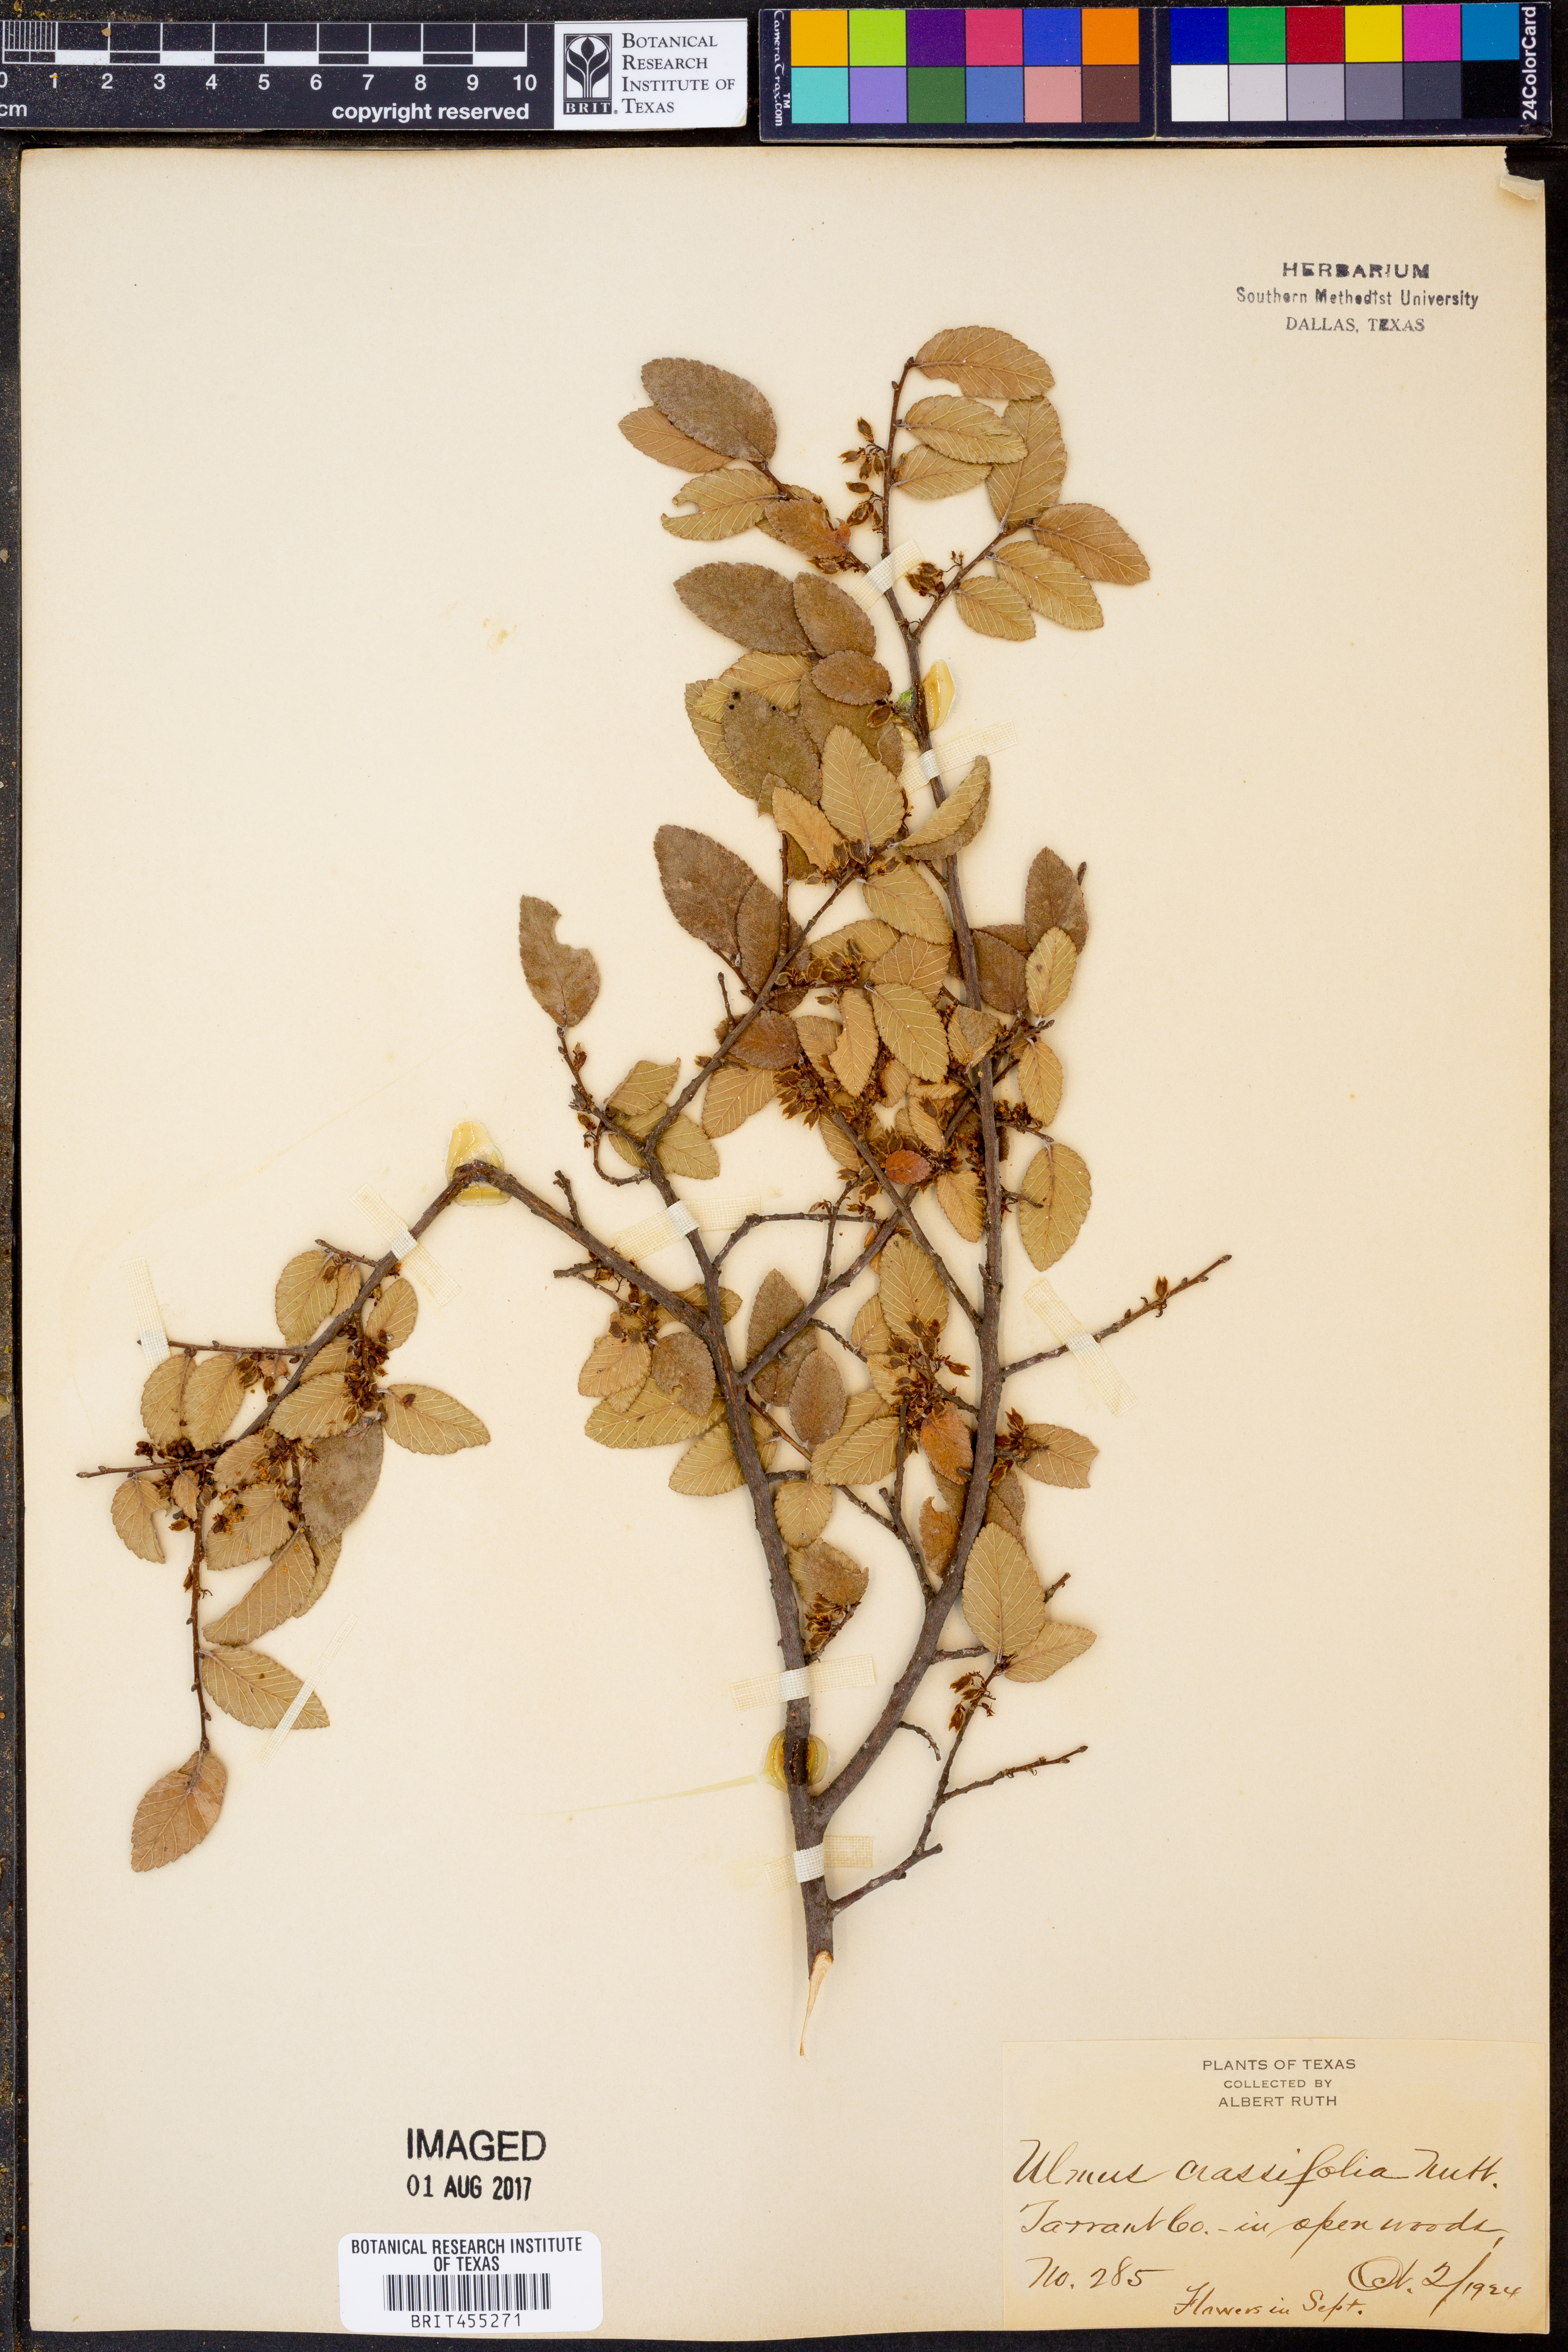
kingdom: Plantae
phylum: Tracheophyta
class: Magnoliopsida
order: Rosales
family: Ulmaceae
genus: Ulmus
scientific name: Ulmus crassifolia
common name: Basket elm
